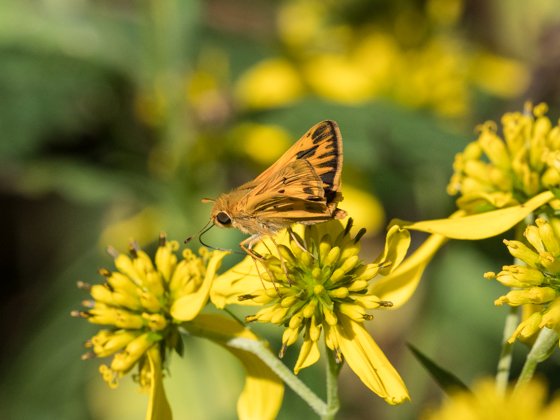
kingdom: Animalia
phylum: Arthropoda
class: Insecta
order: Lepidoptera
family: Hesperiidae
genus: Hylephila
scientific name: Hylephila phyleus
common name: Fiery Skipper
